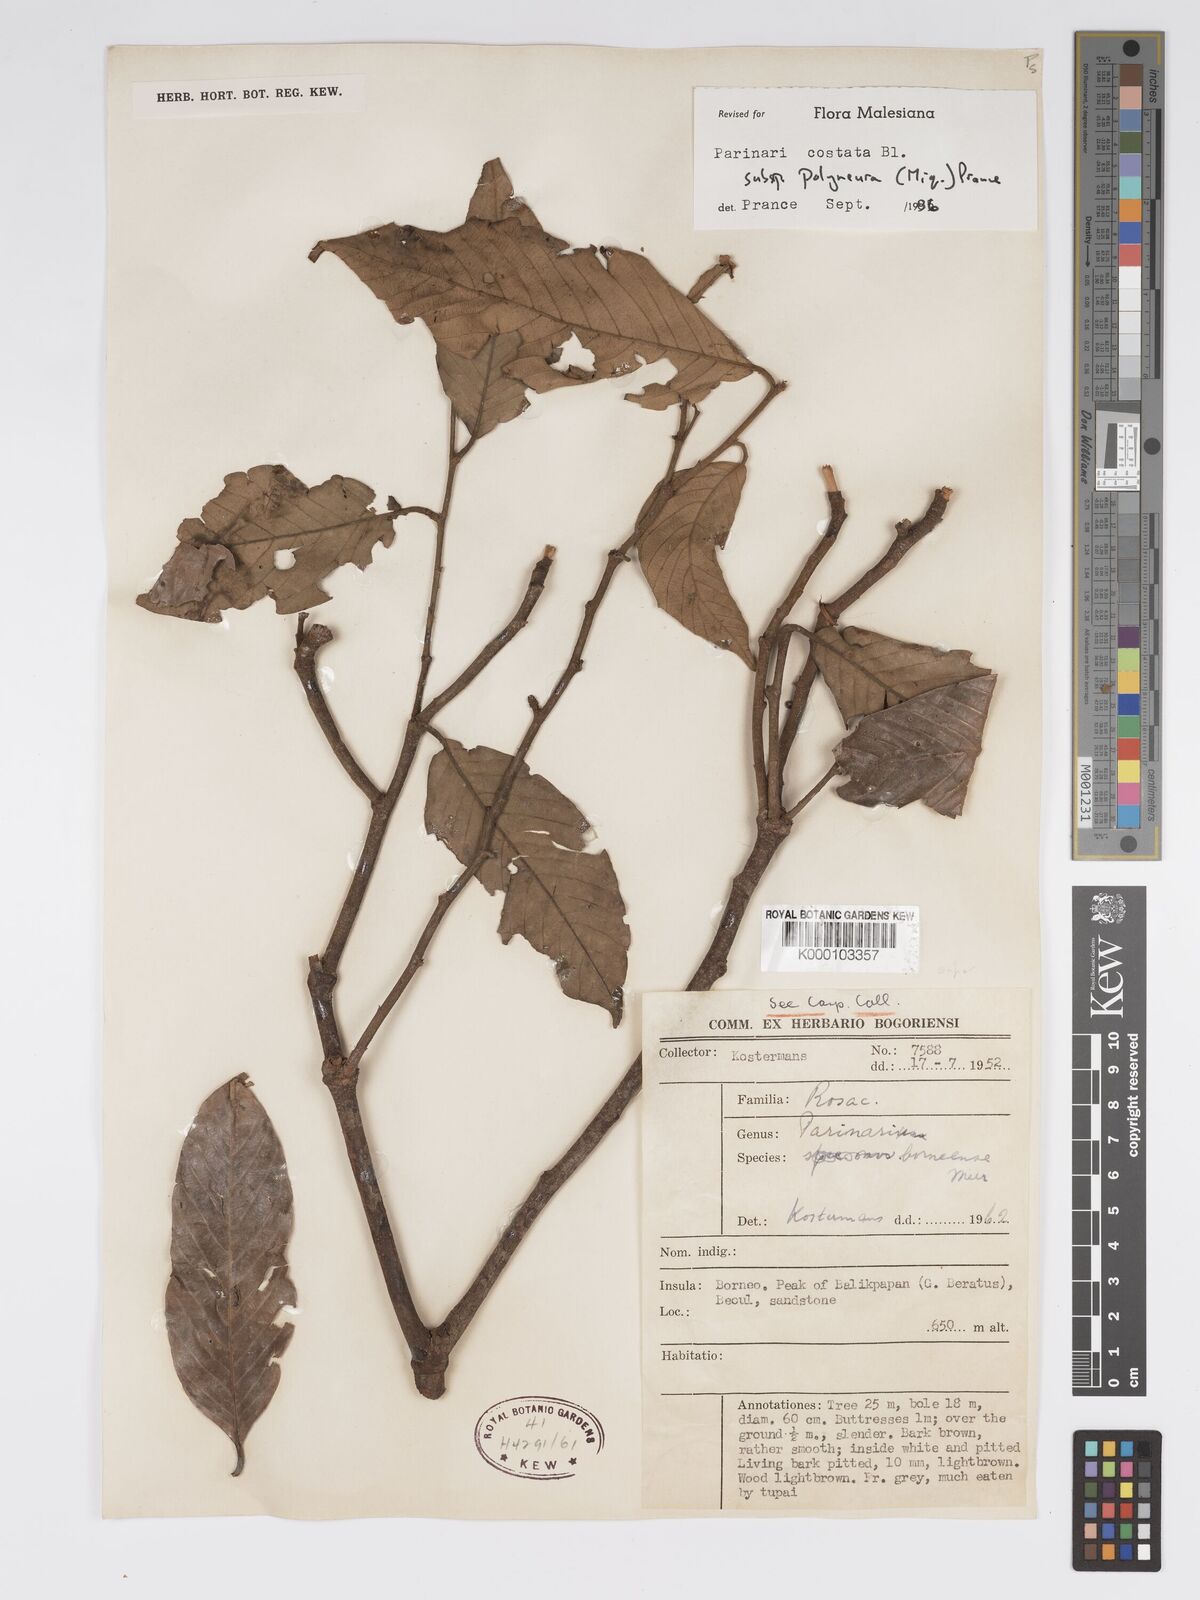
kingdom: Plantae
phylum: Tracheophyta
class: Magnoliopsida
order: Malpighiales
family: Chrysobalanaceae
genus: Parinari
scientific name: Parinari costata
